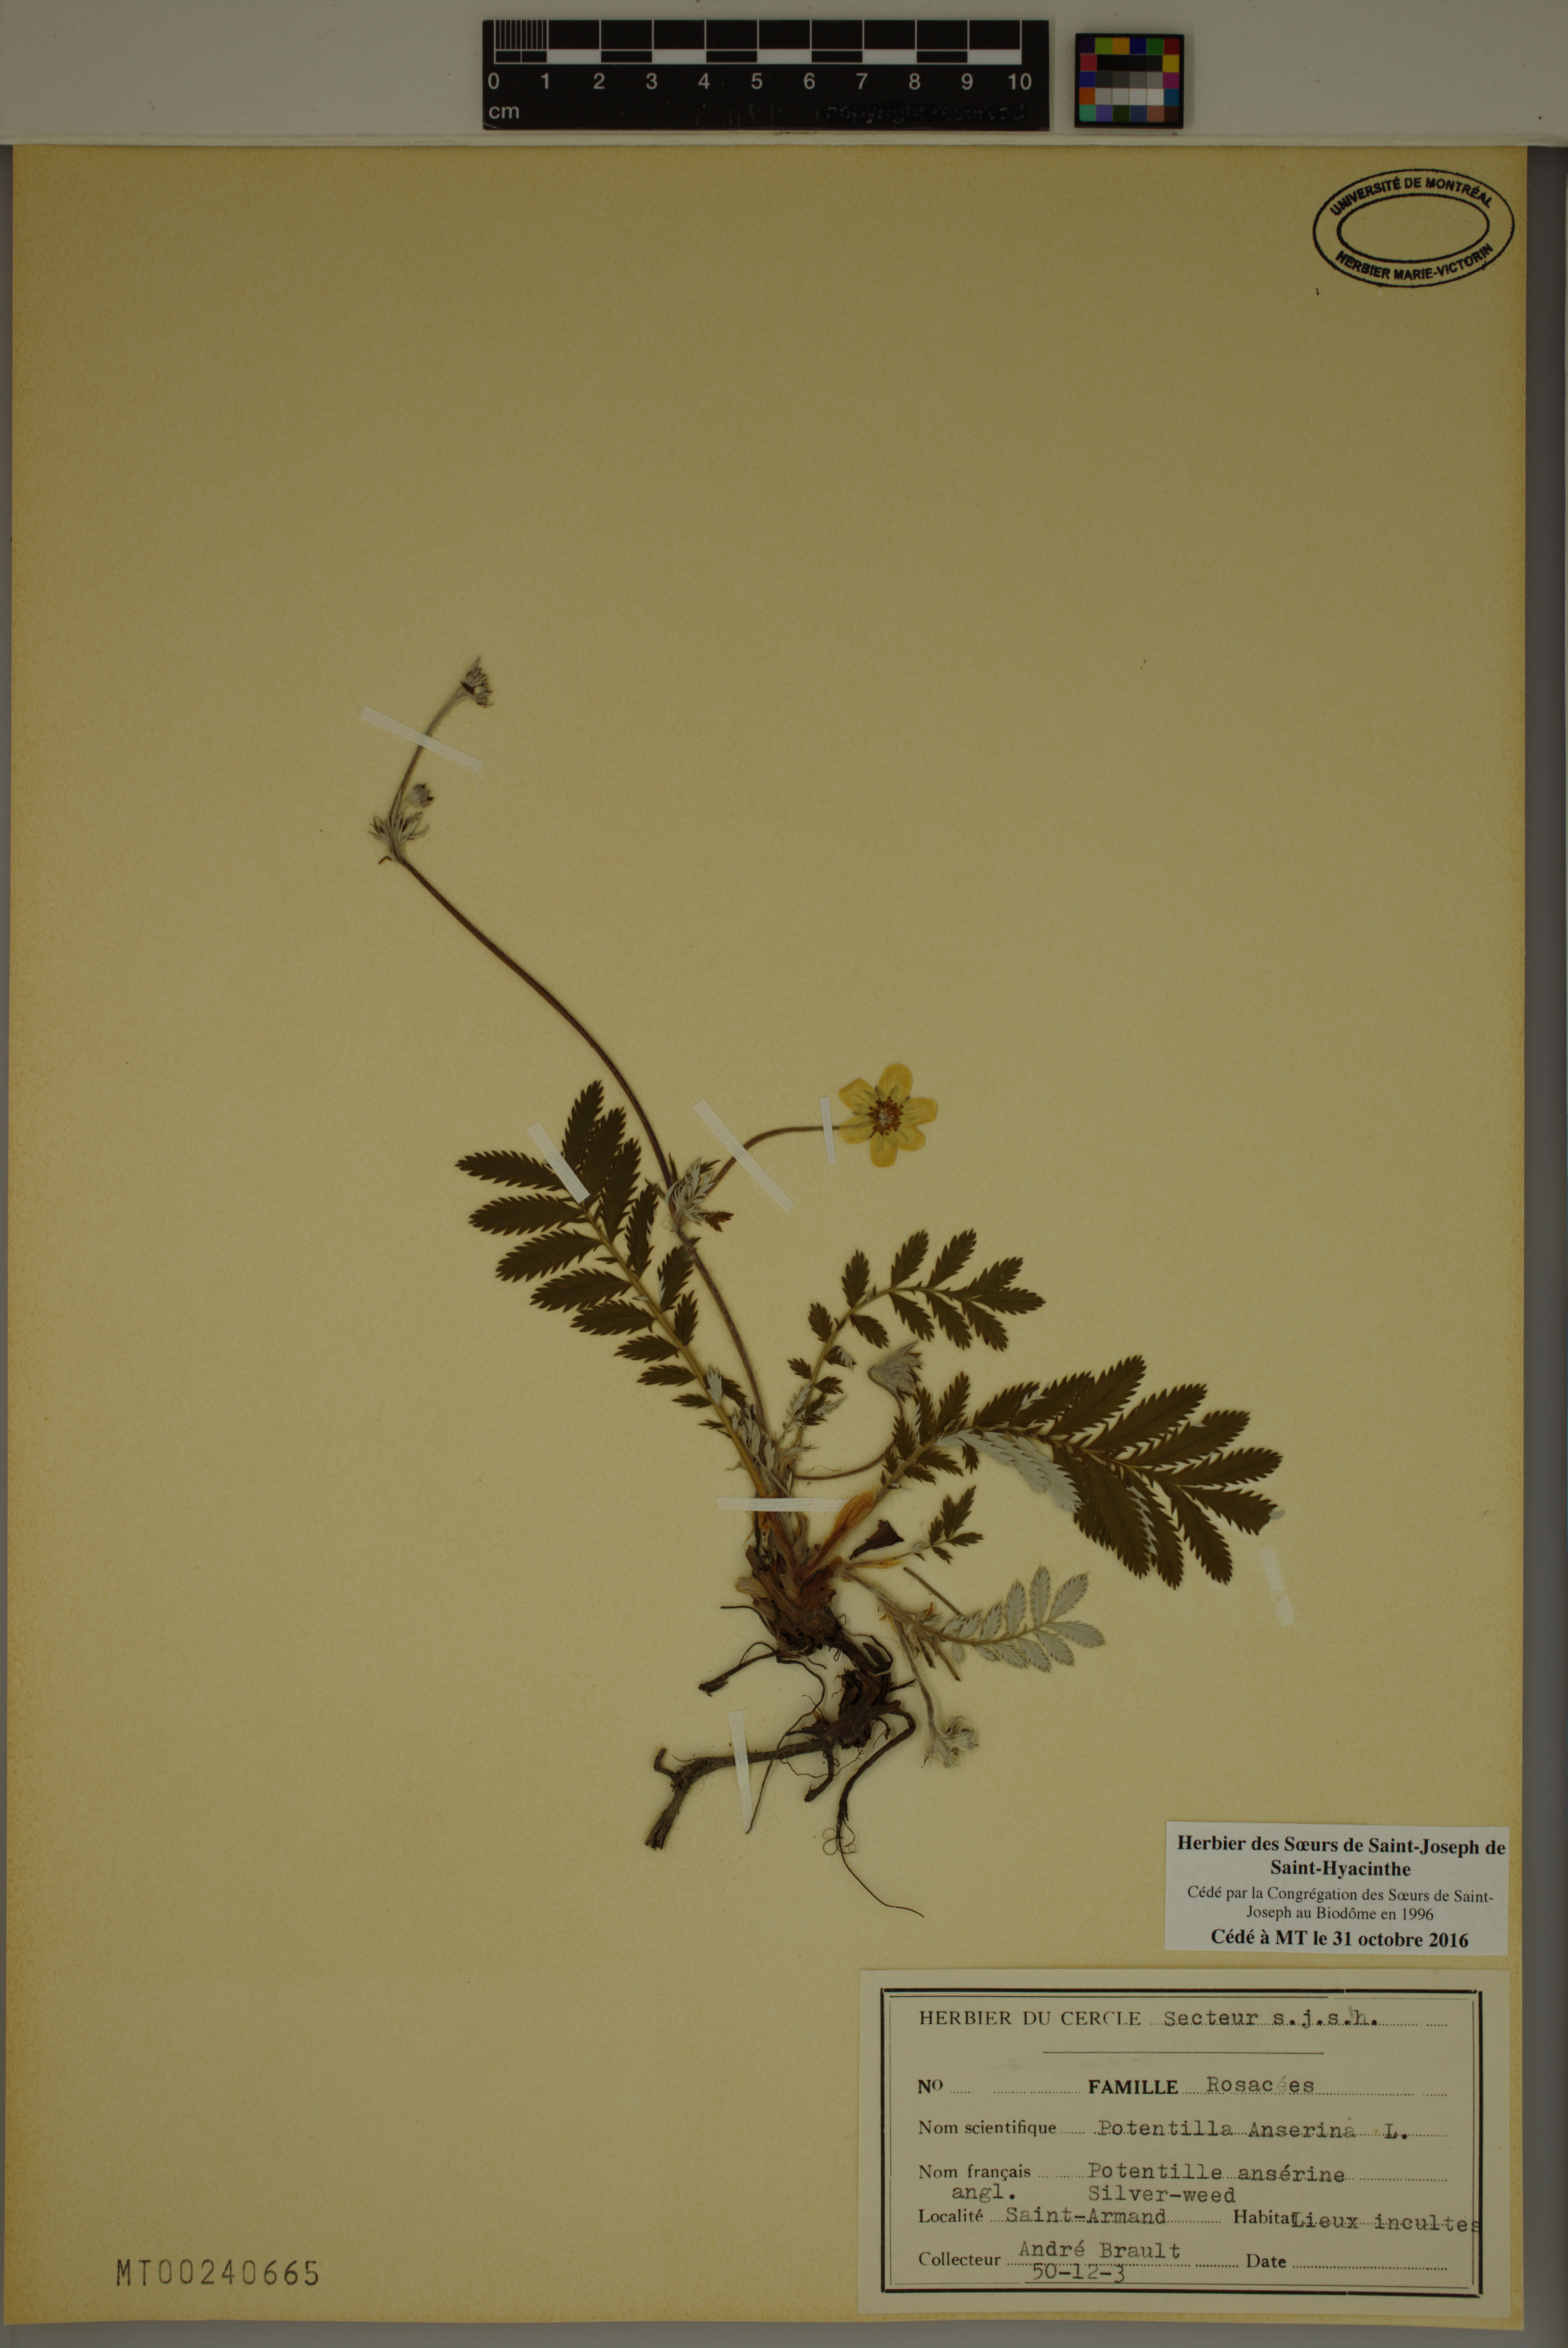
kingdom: Plantae
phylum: Tracheophyta
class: Magnoliopsida
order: Rosales
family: Rosaceae
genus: Argentina
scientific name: Argentina anserina
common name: Common silverweed
